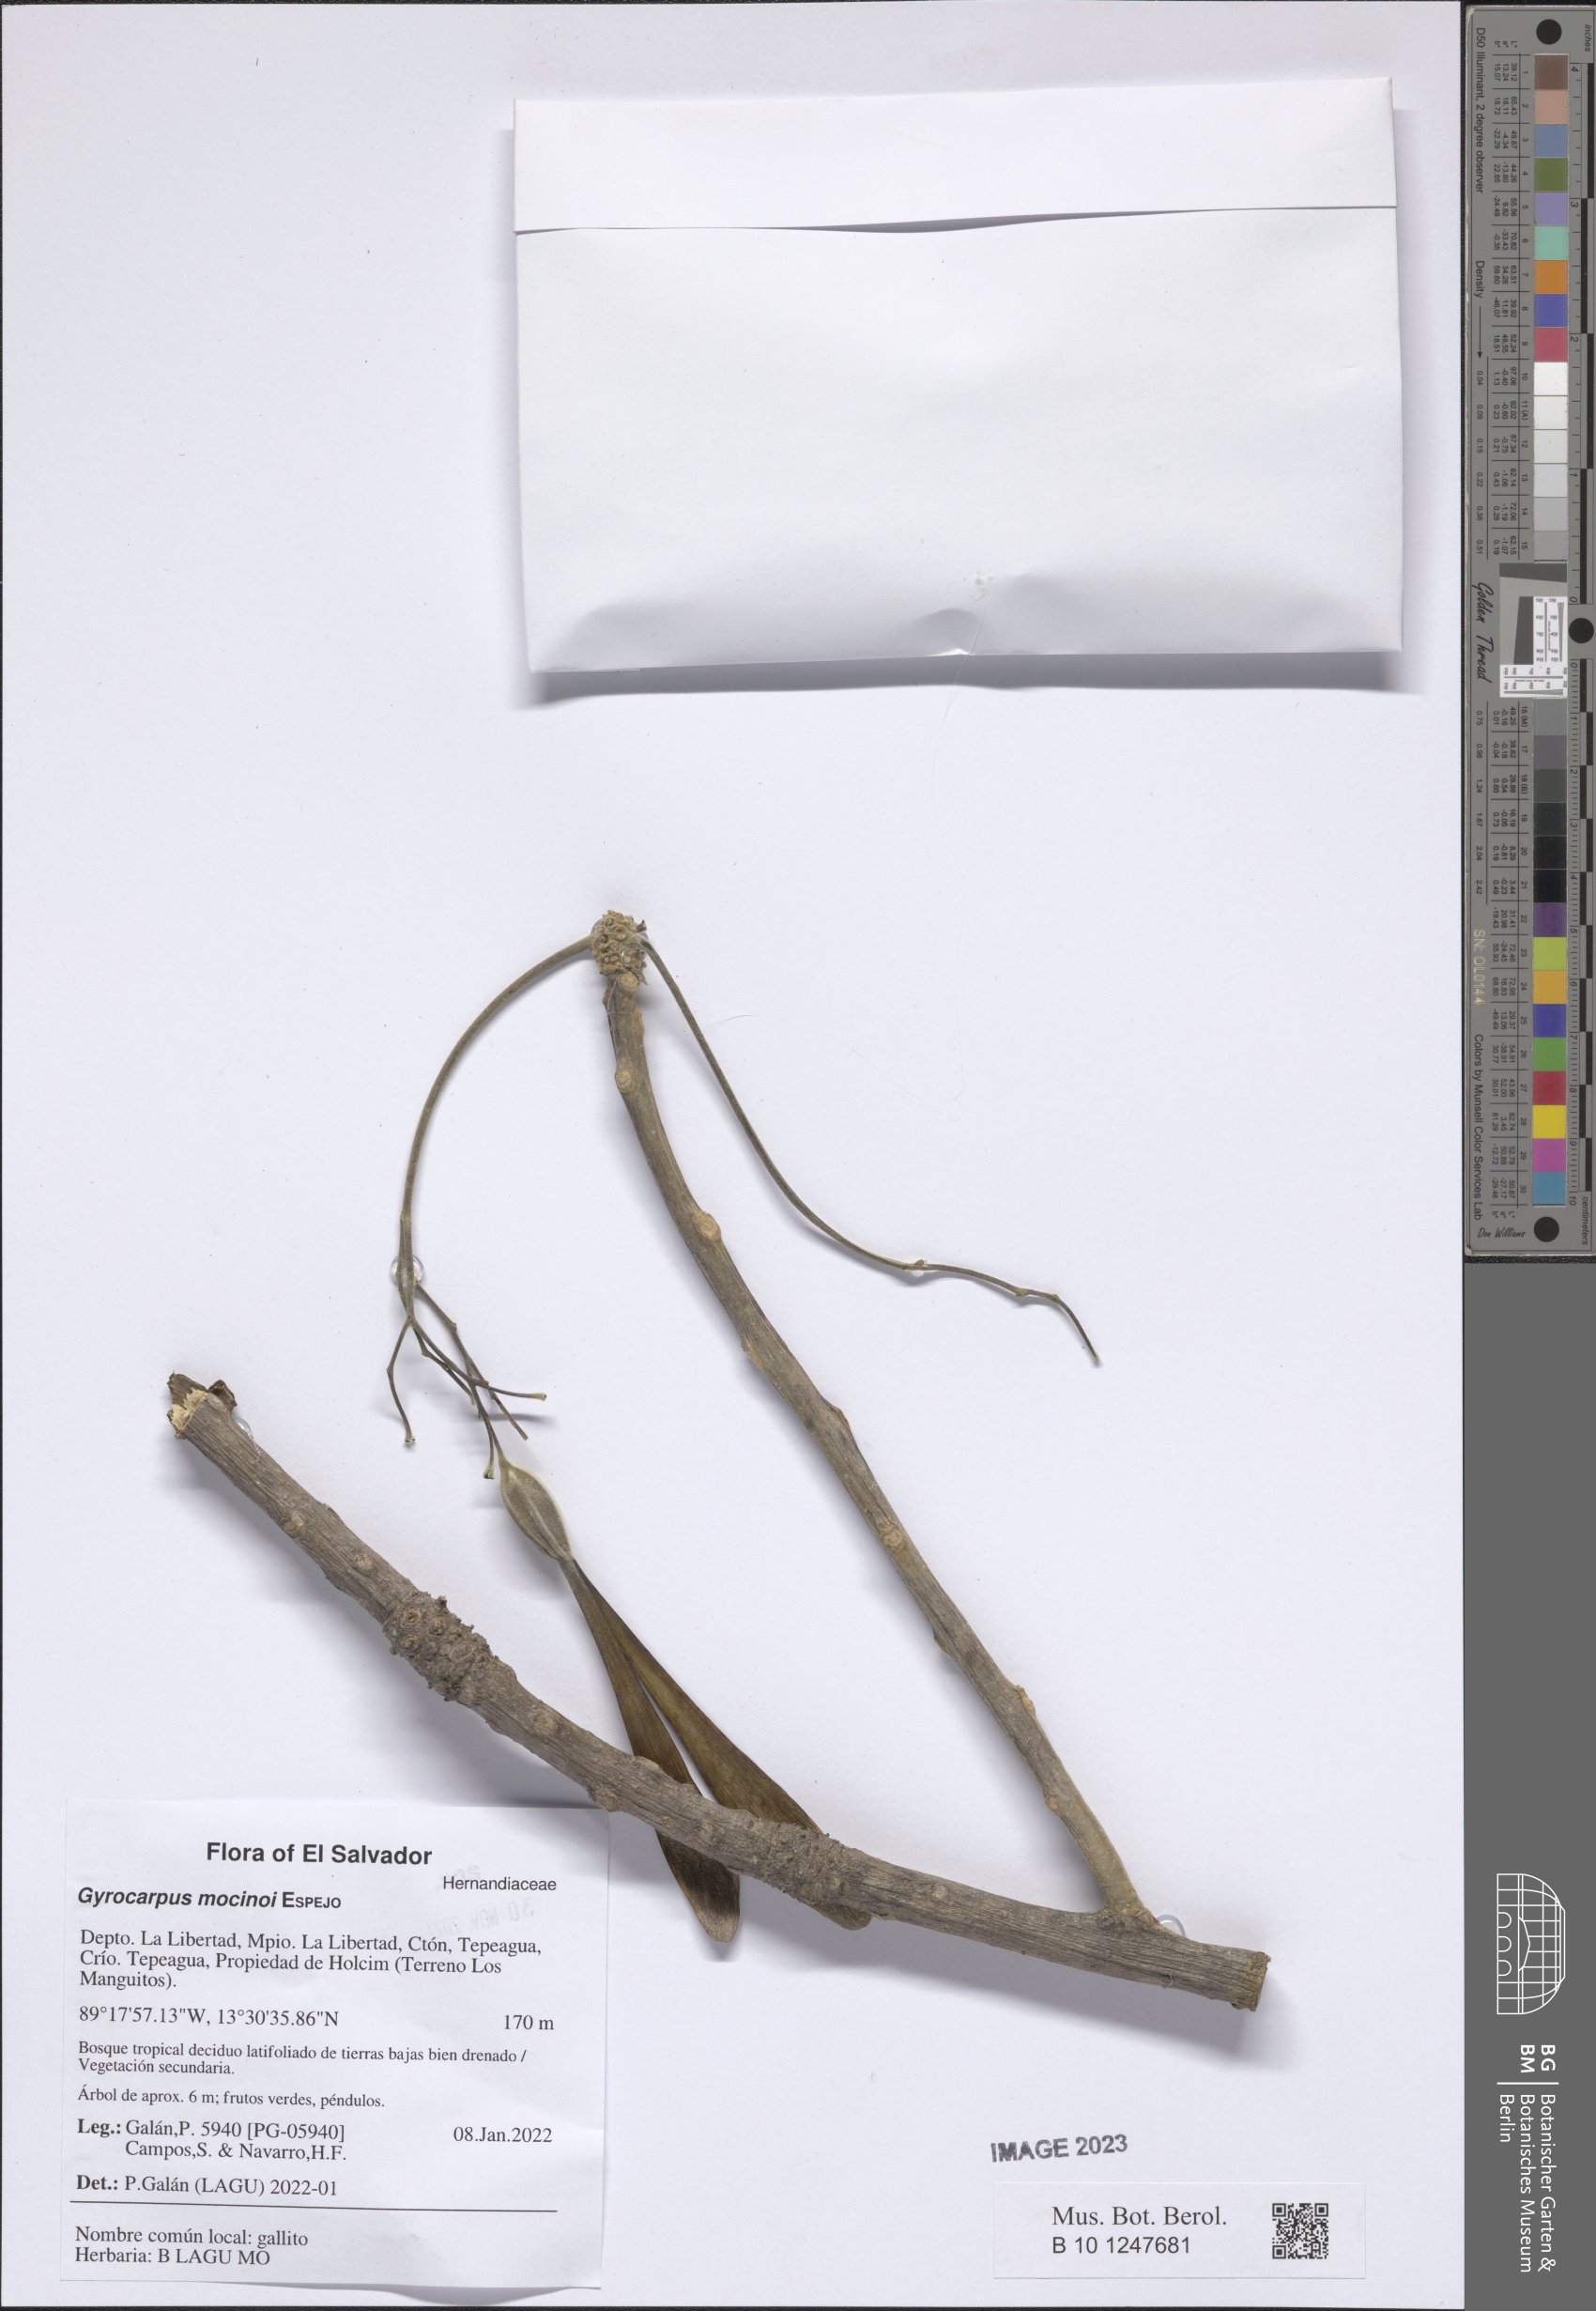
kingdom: Plantae
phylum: Tracheophyta
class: Magnoliopsida
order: Laurales
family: Hernandiaceae
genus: Gyrocarpus
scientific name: Gyrocarpus mocinoi
